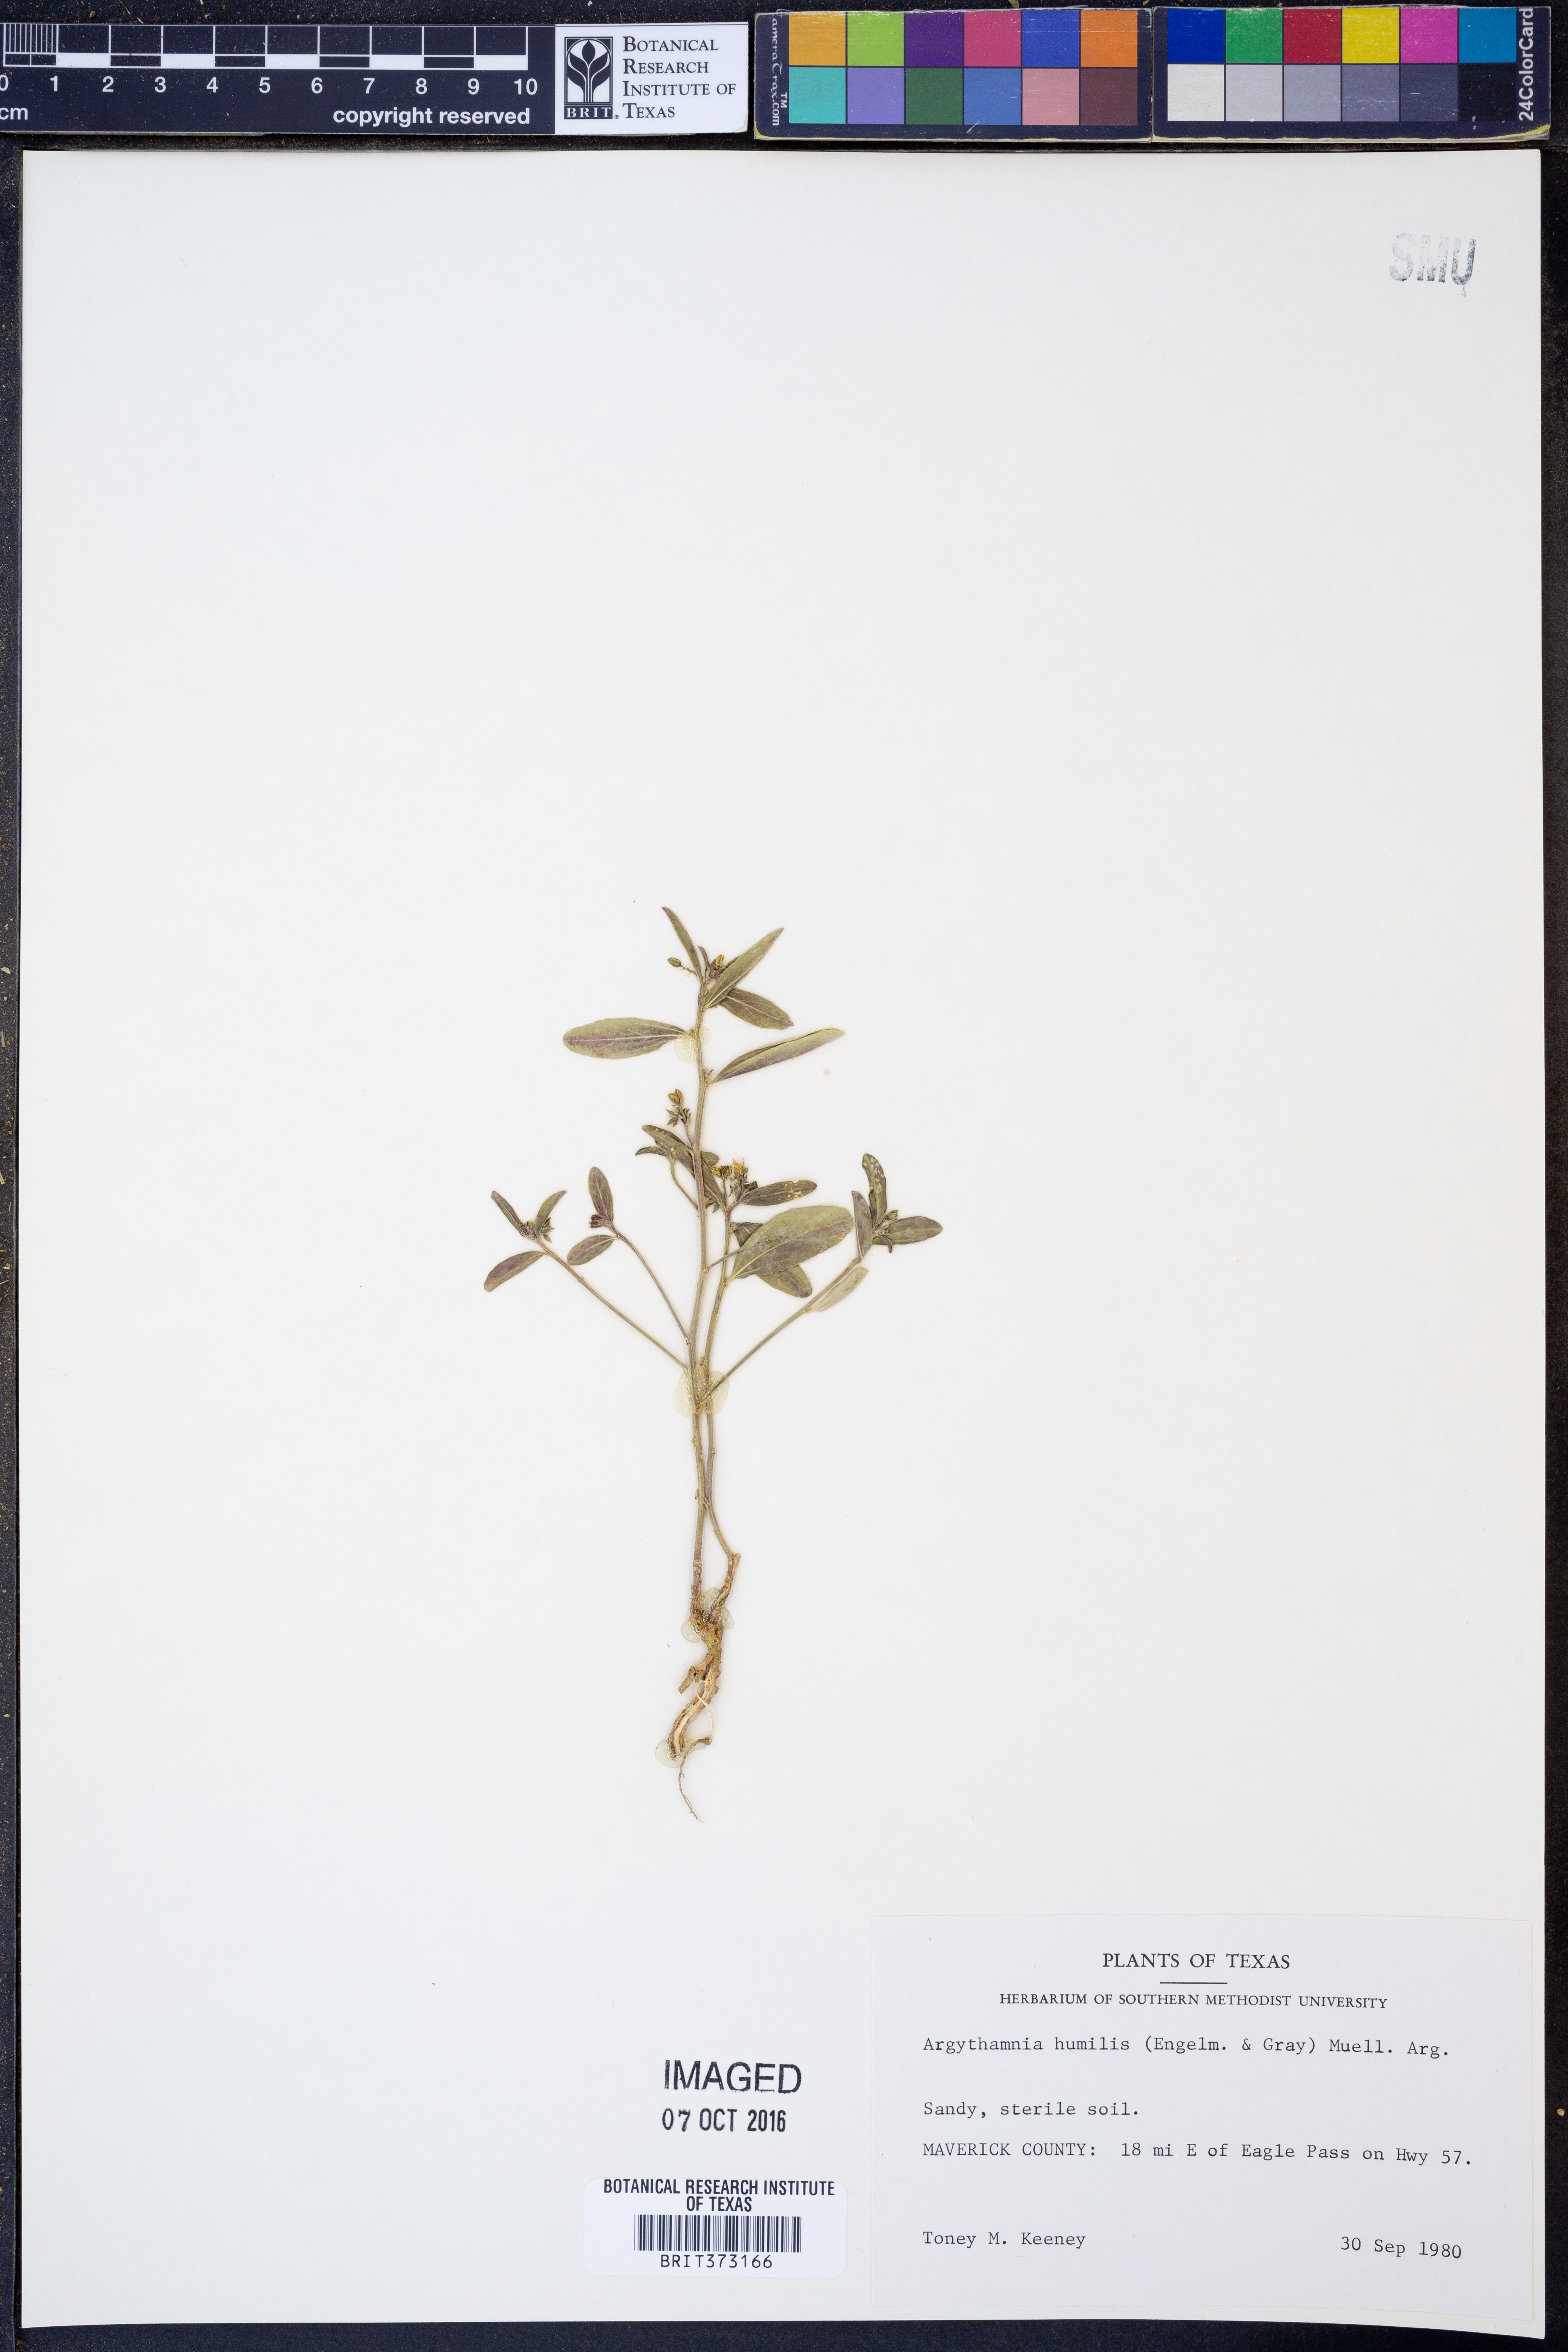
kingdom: Plantae
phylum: Tracheophyta
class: Magnoliopsida
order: Malpighiales
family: Euphorbiaceae
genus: Ditaxis
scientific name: Ditaxis humilis
